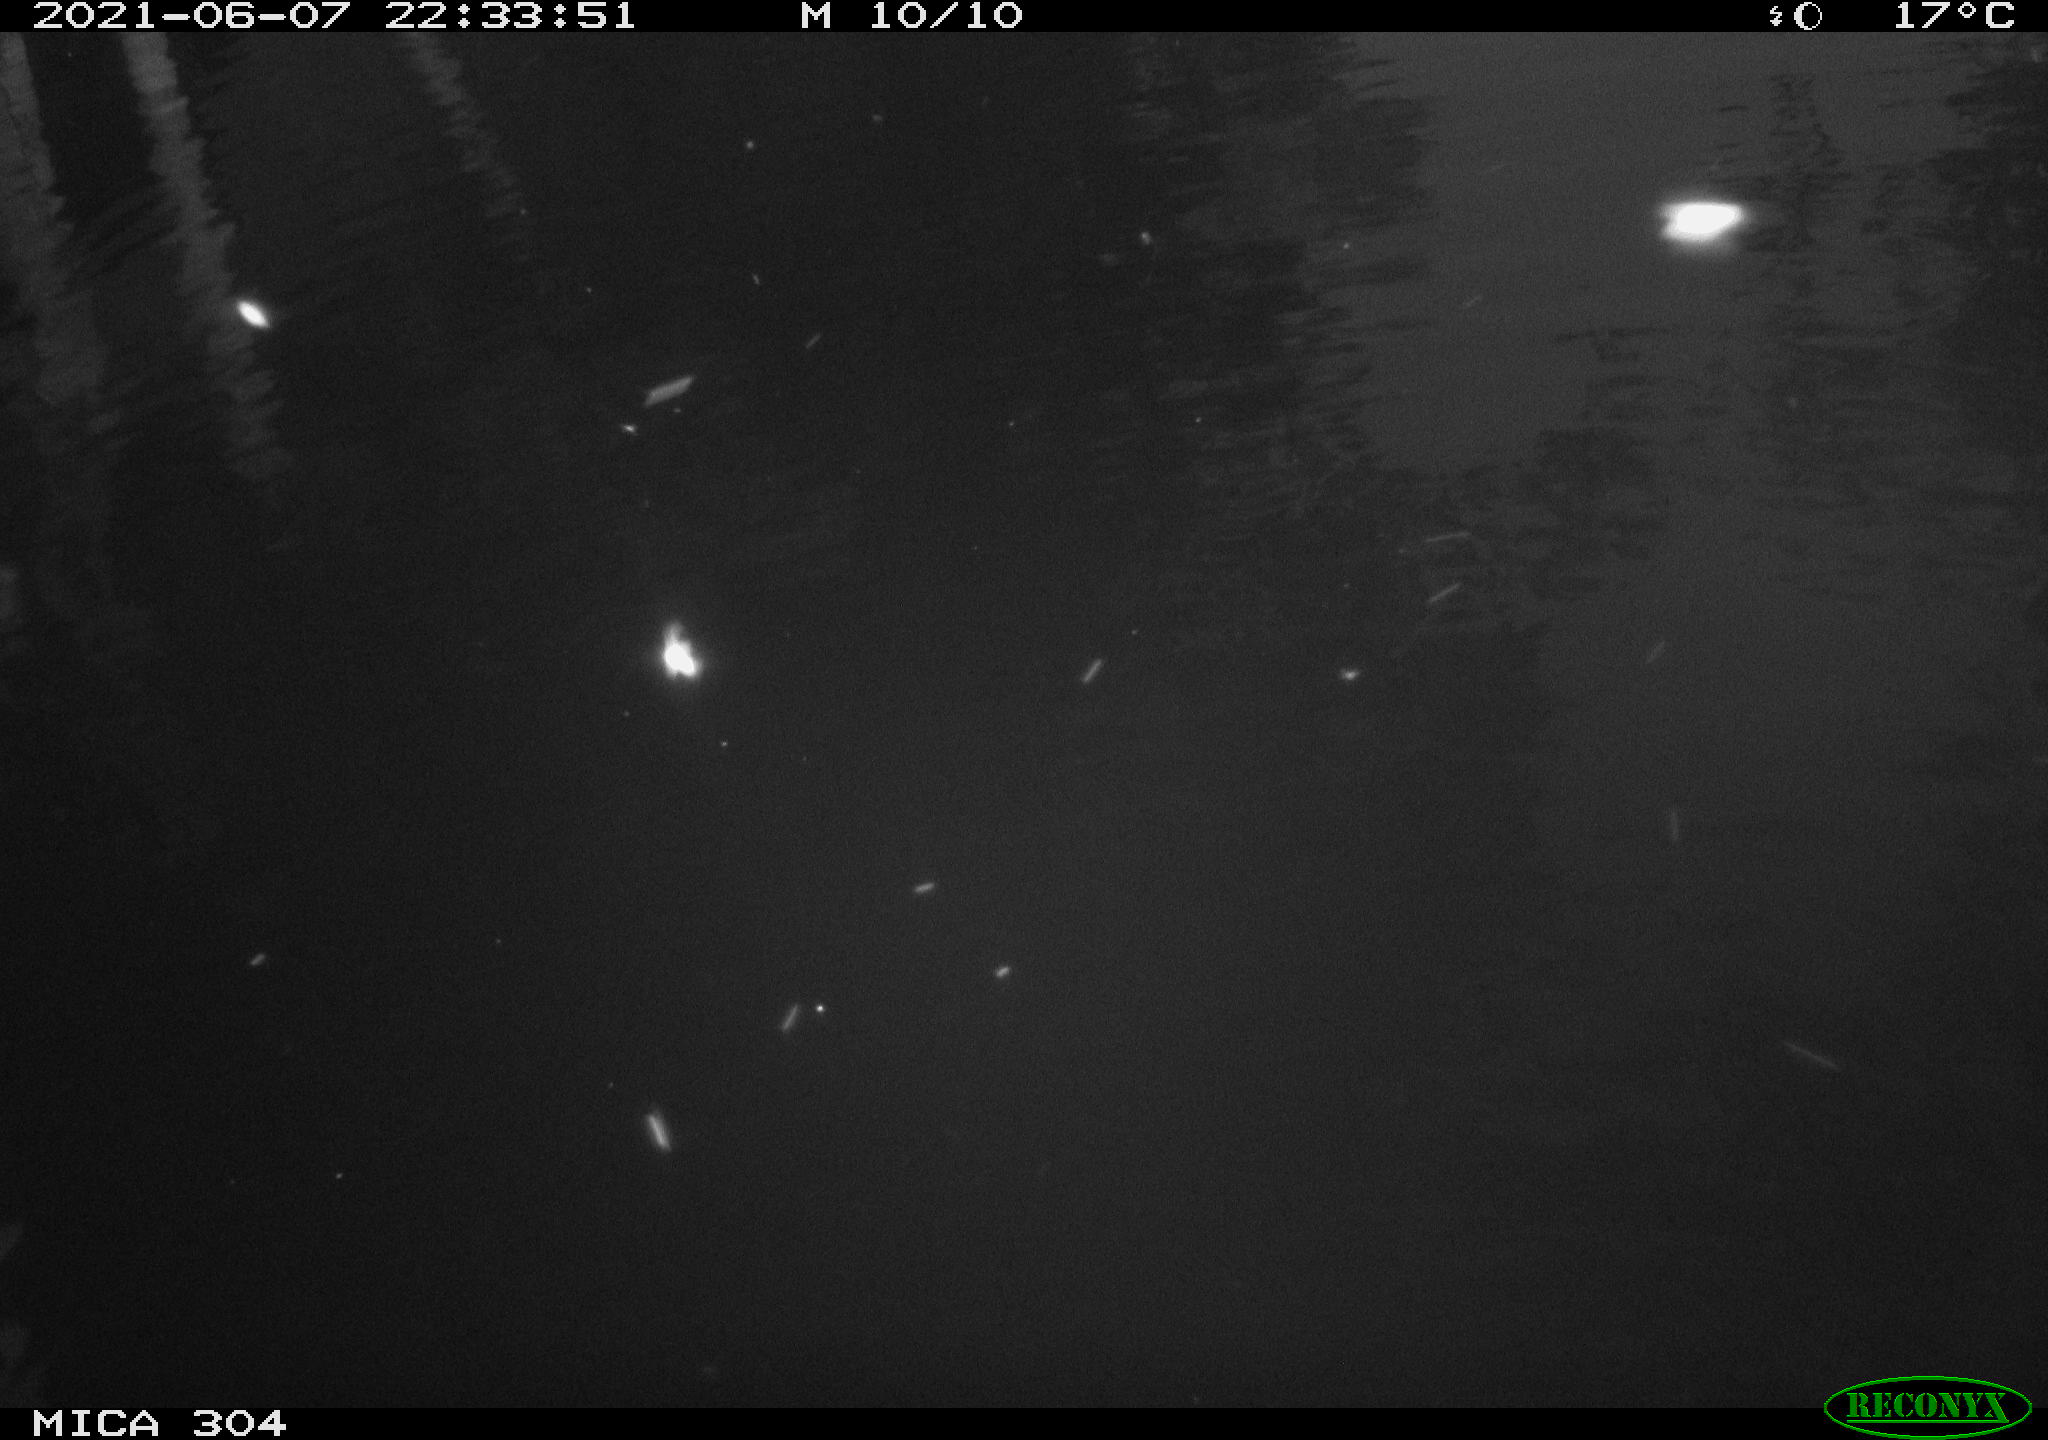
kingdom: Animalia
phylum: Chordata
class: Aves
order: Anseriformes
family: Anatidae
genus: Anas
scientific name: Anas platyrhynchos
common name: Mallard
